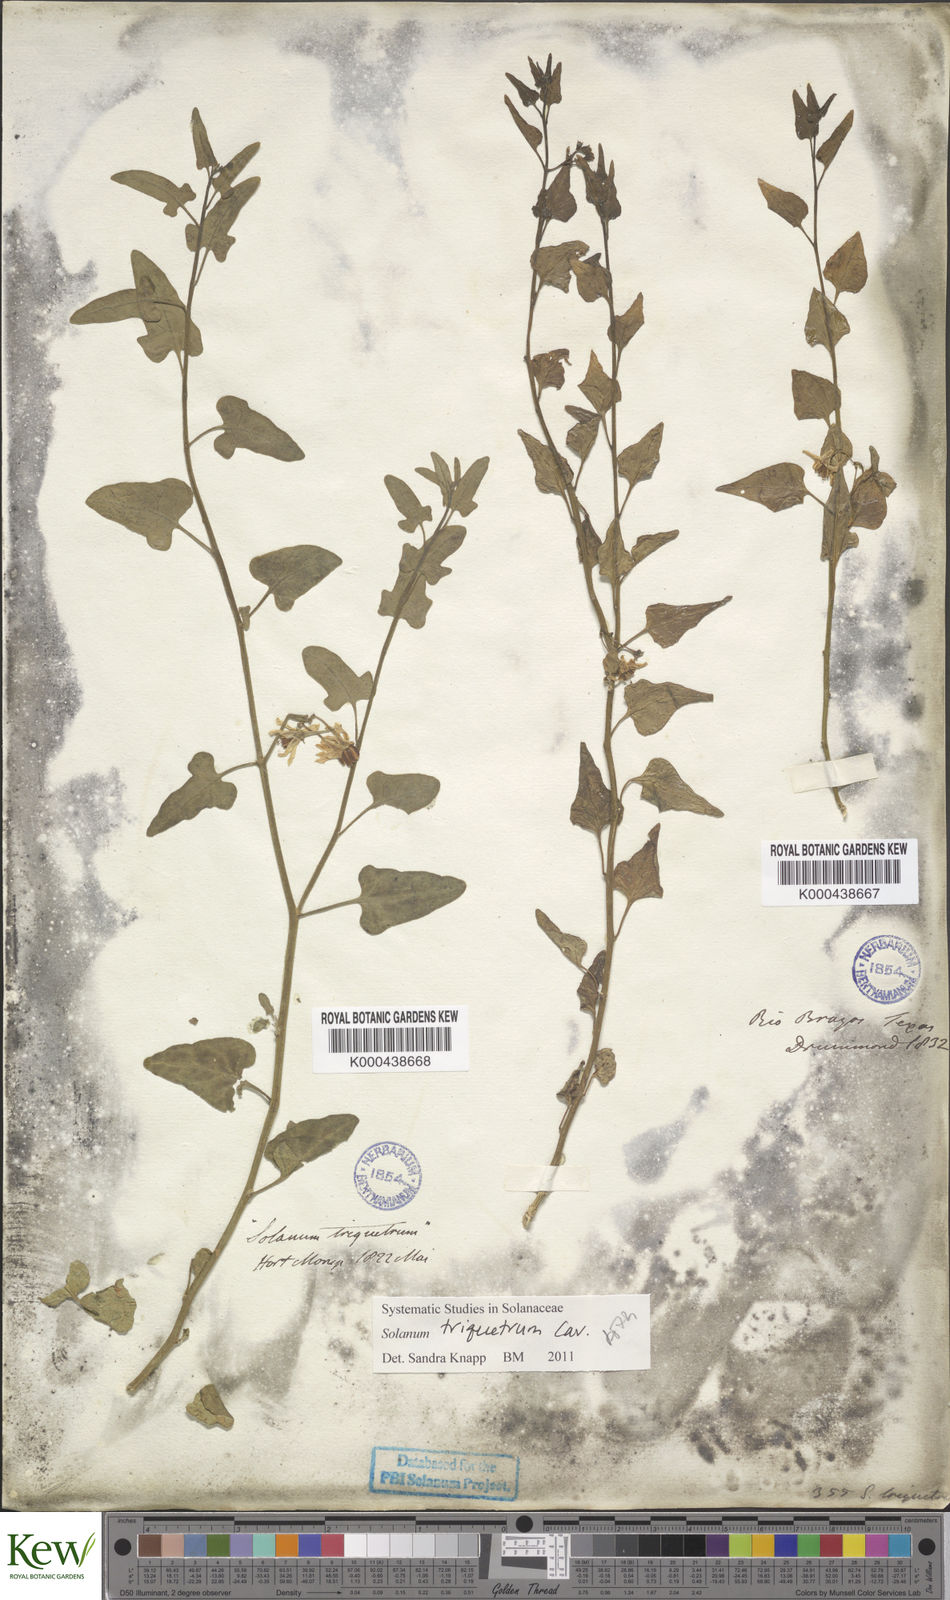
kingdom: Plantae
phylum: Tracheophyta
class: Magnoliopsida
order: Solanales
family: Solanaceae
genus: Solanum
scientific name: Solanum triquetrum
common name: Texas nightshade
